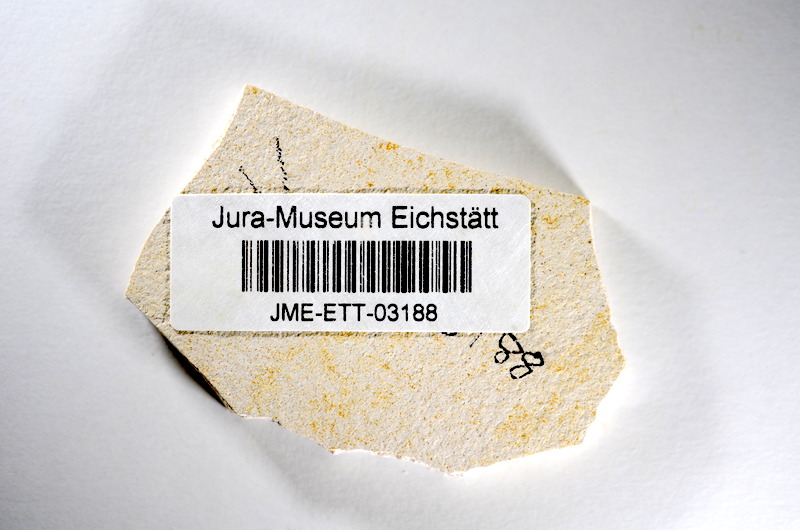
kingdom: Animalia
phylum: Chordata
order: Salmoniformes
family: Orthogonikleithridae
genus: Orthogonikleithrus
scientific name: Orthogonikleithrus hoelli
